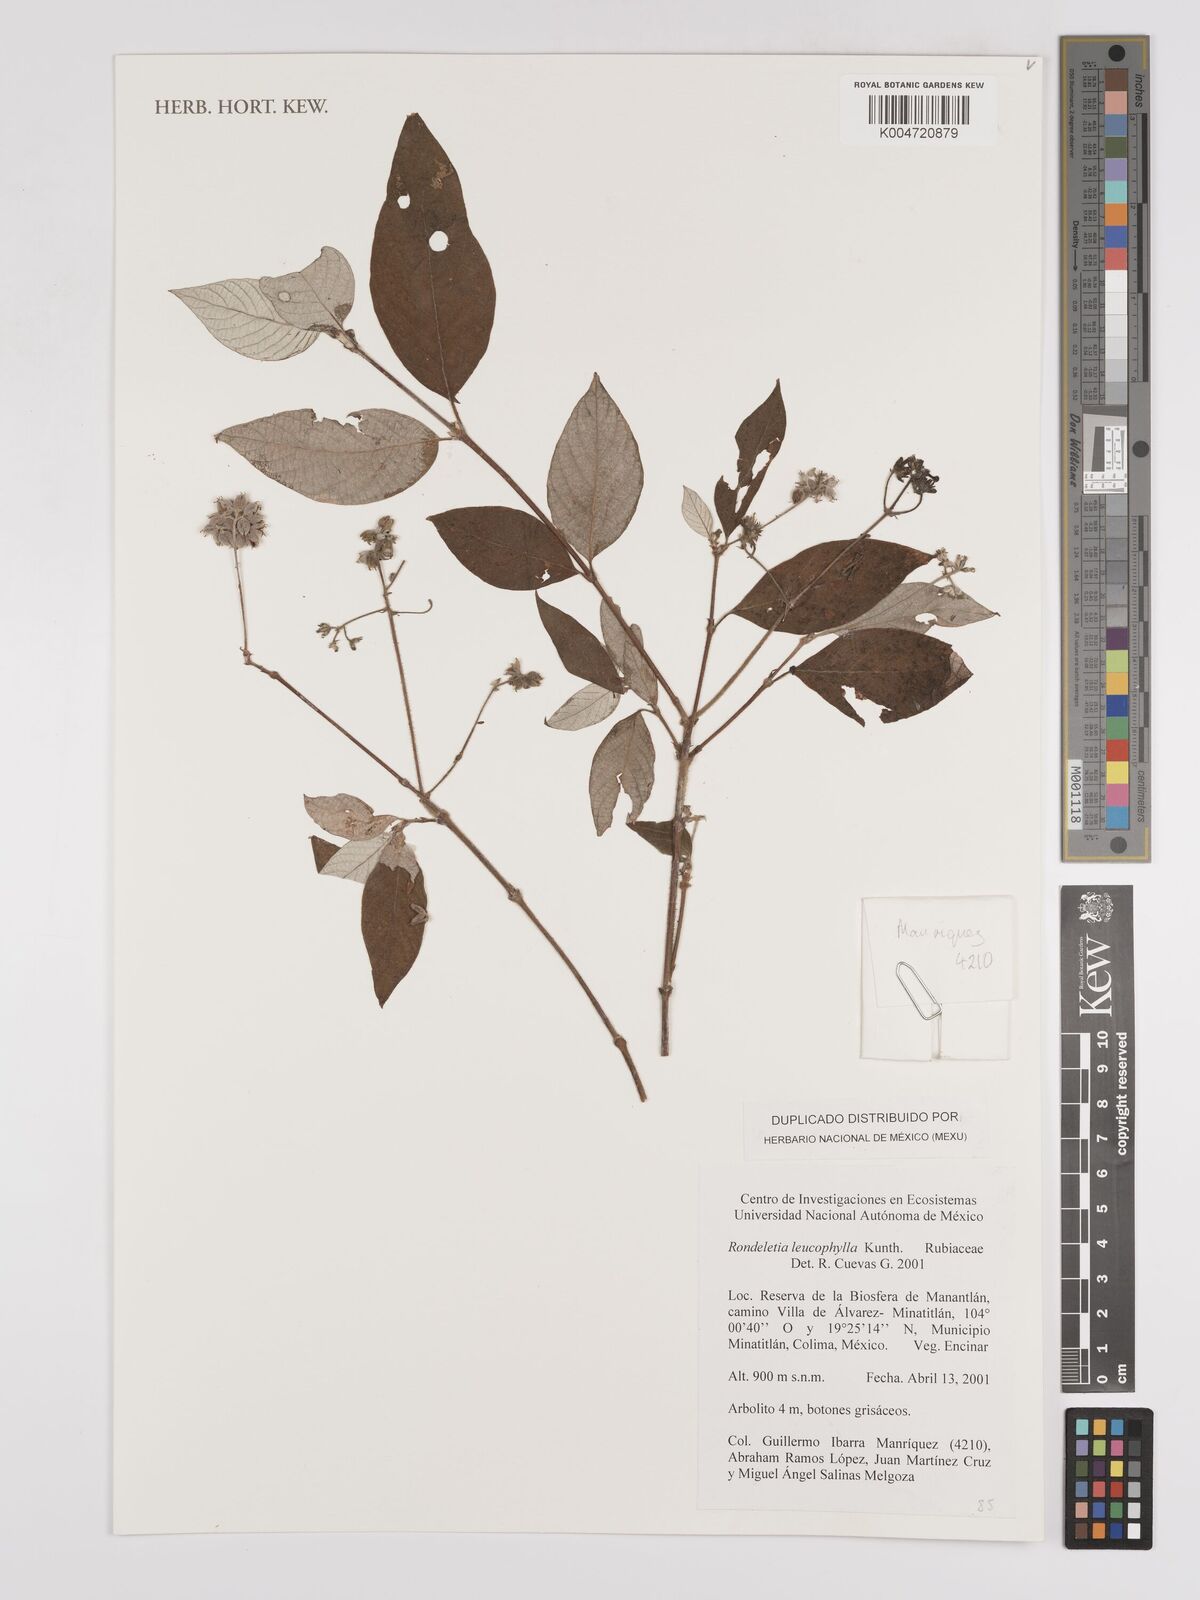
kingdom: Plantae
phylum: Tracheophyta
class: Magnoliopsida
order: Gentianales
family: Rubiaceae
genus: Arachnothryx
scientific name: Arachnothryx leucophylla
